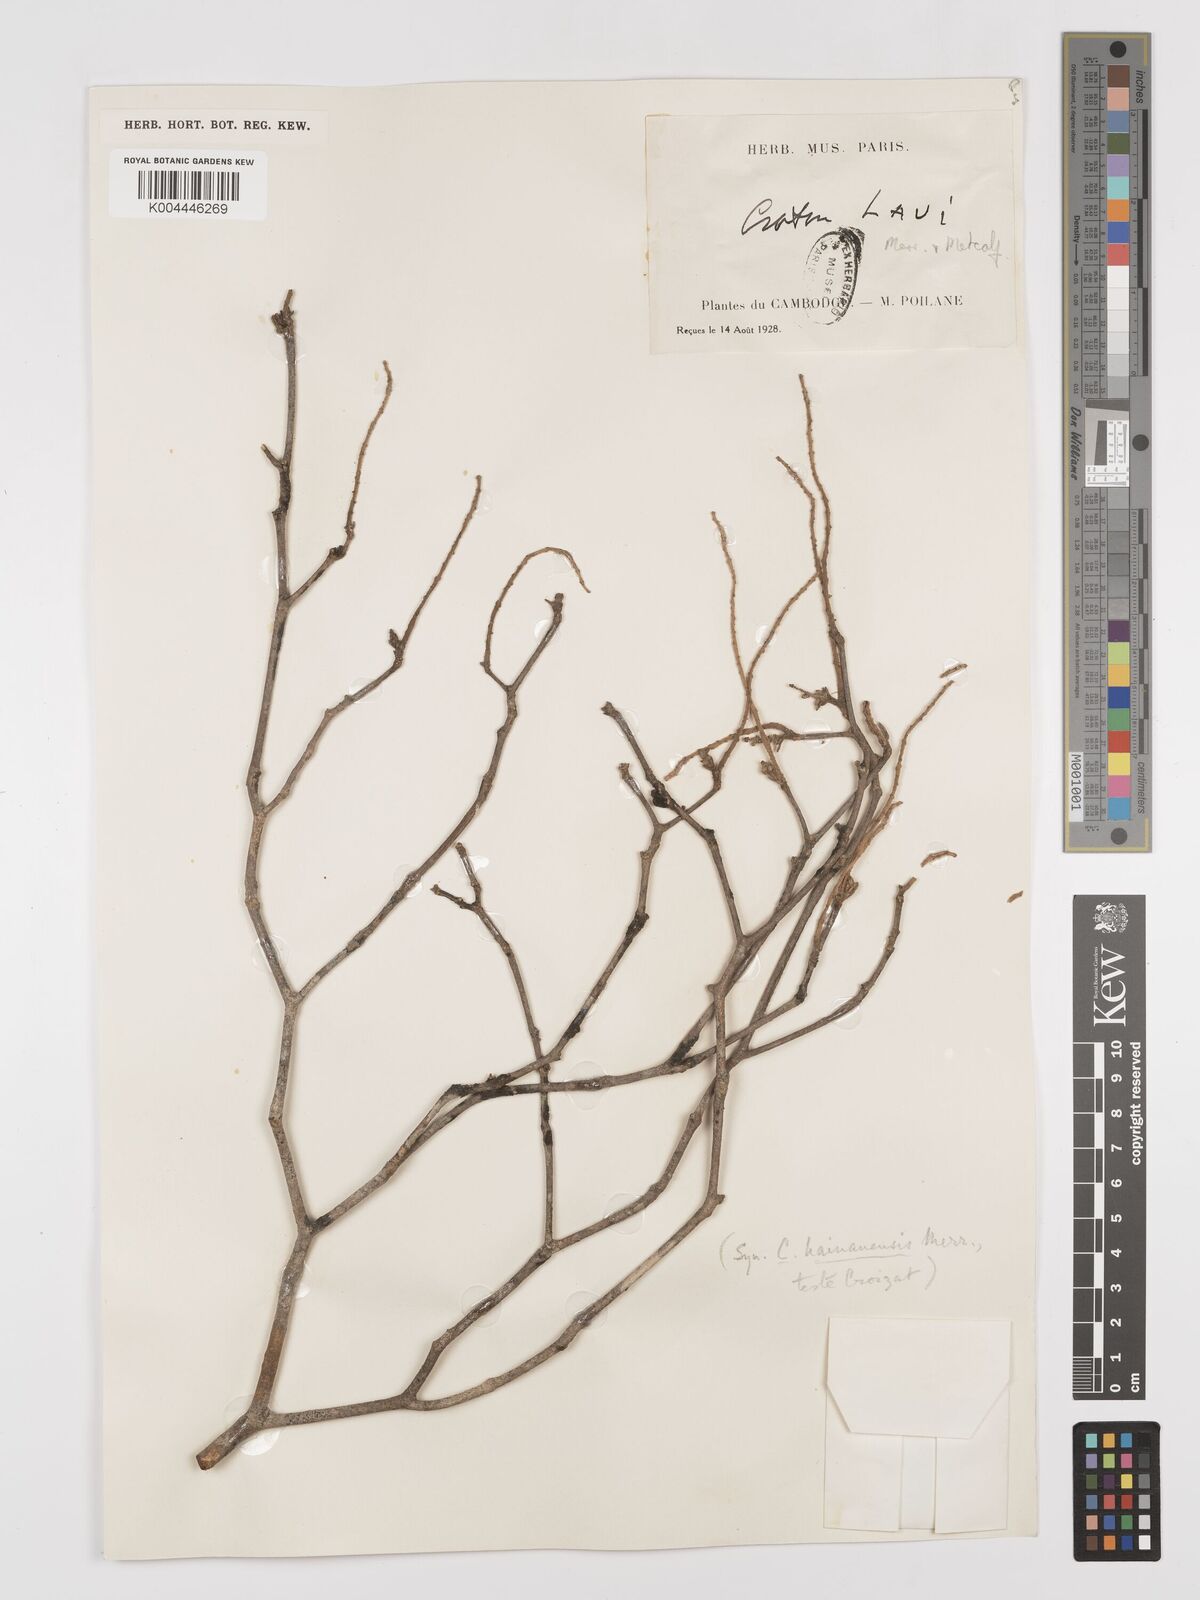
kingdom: Plantae
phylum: Tracheophyta
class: Magnoliopsida
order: Malpighiales
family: Euphorbiaceae
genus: Croton
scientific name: Croton laui
